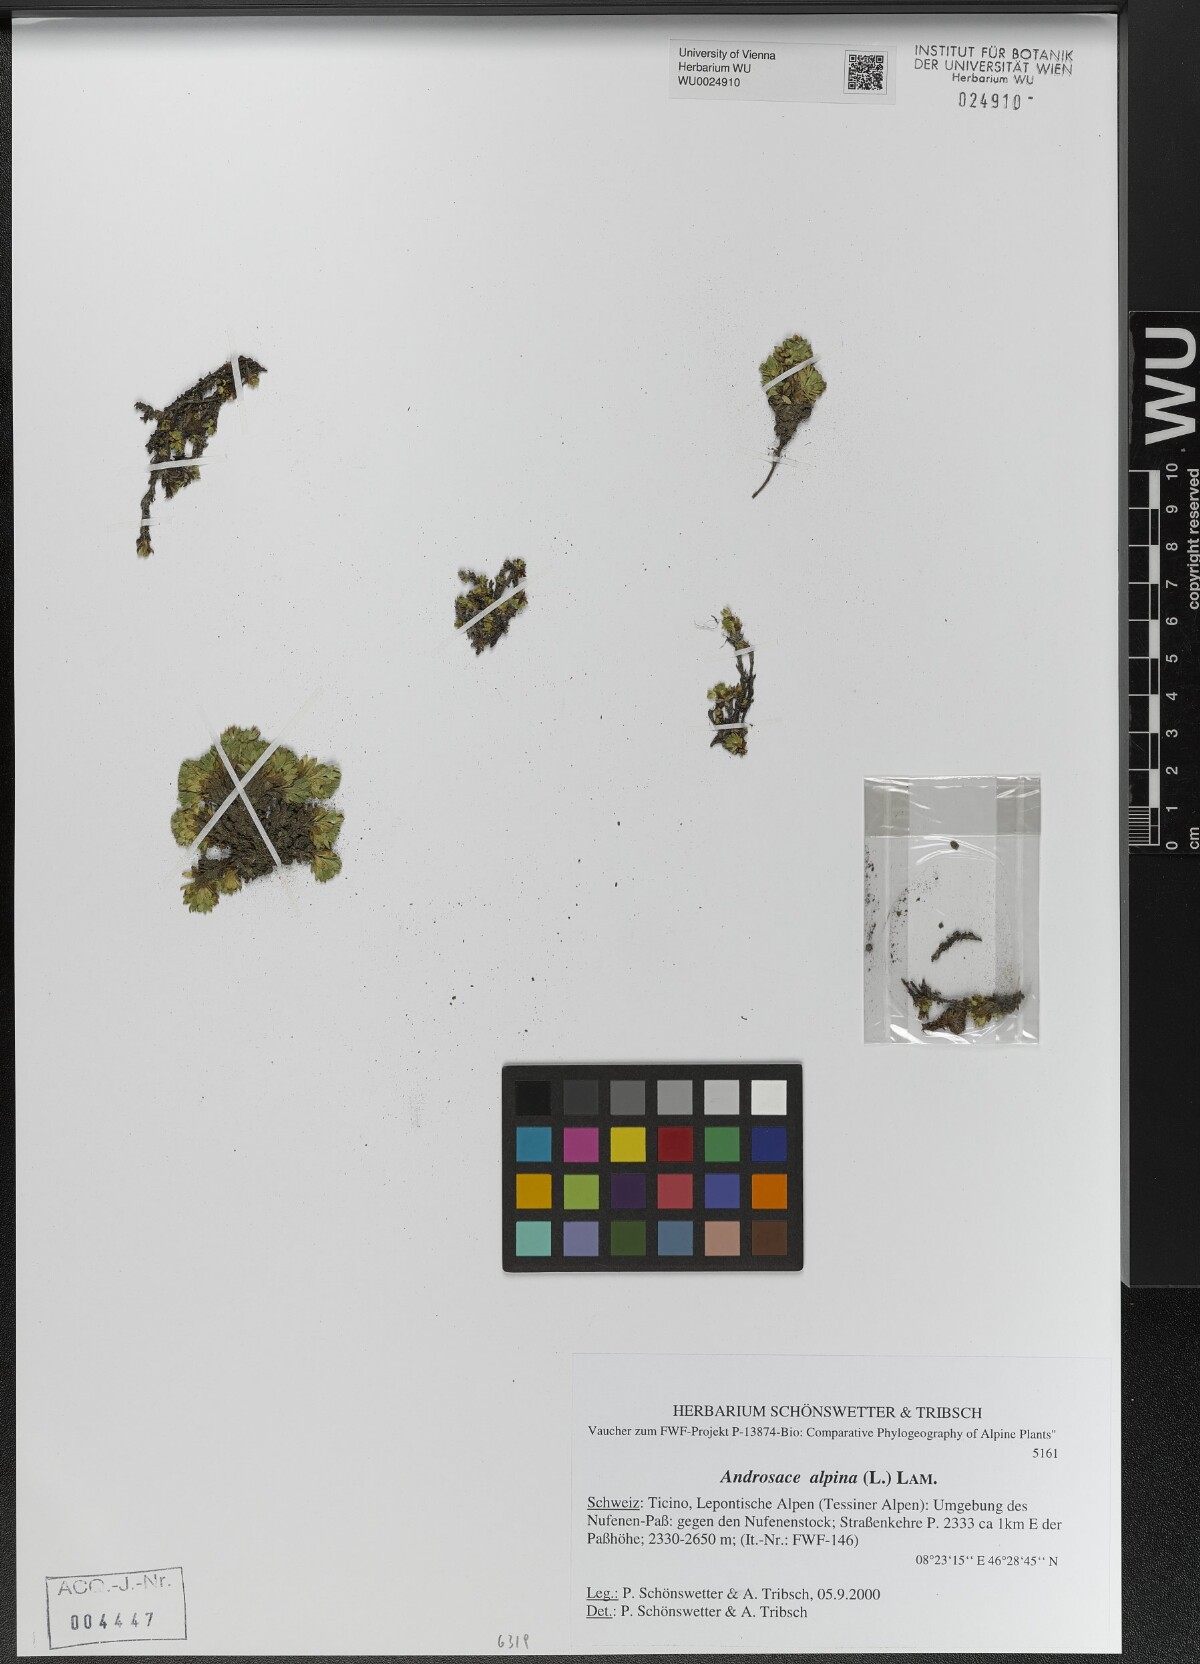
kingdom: Plantae
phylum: Tracheophyta
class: Magnoliopsida
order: Ericales
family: Primulaceae
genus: Androsace
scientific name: Androsace alpina
